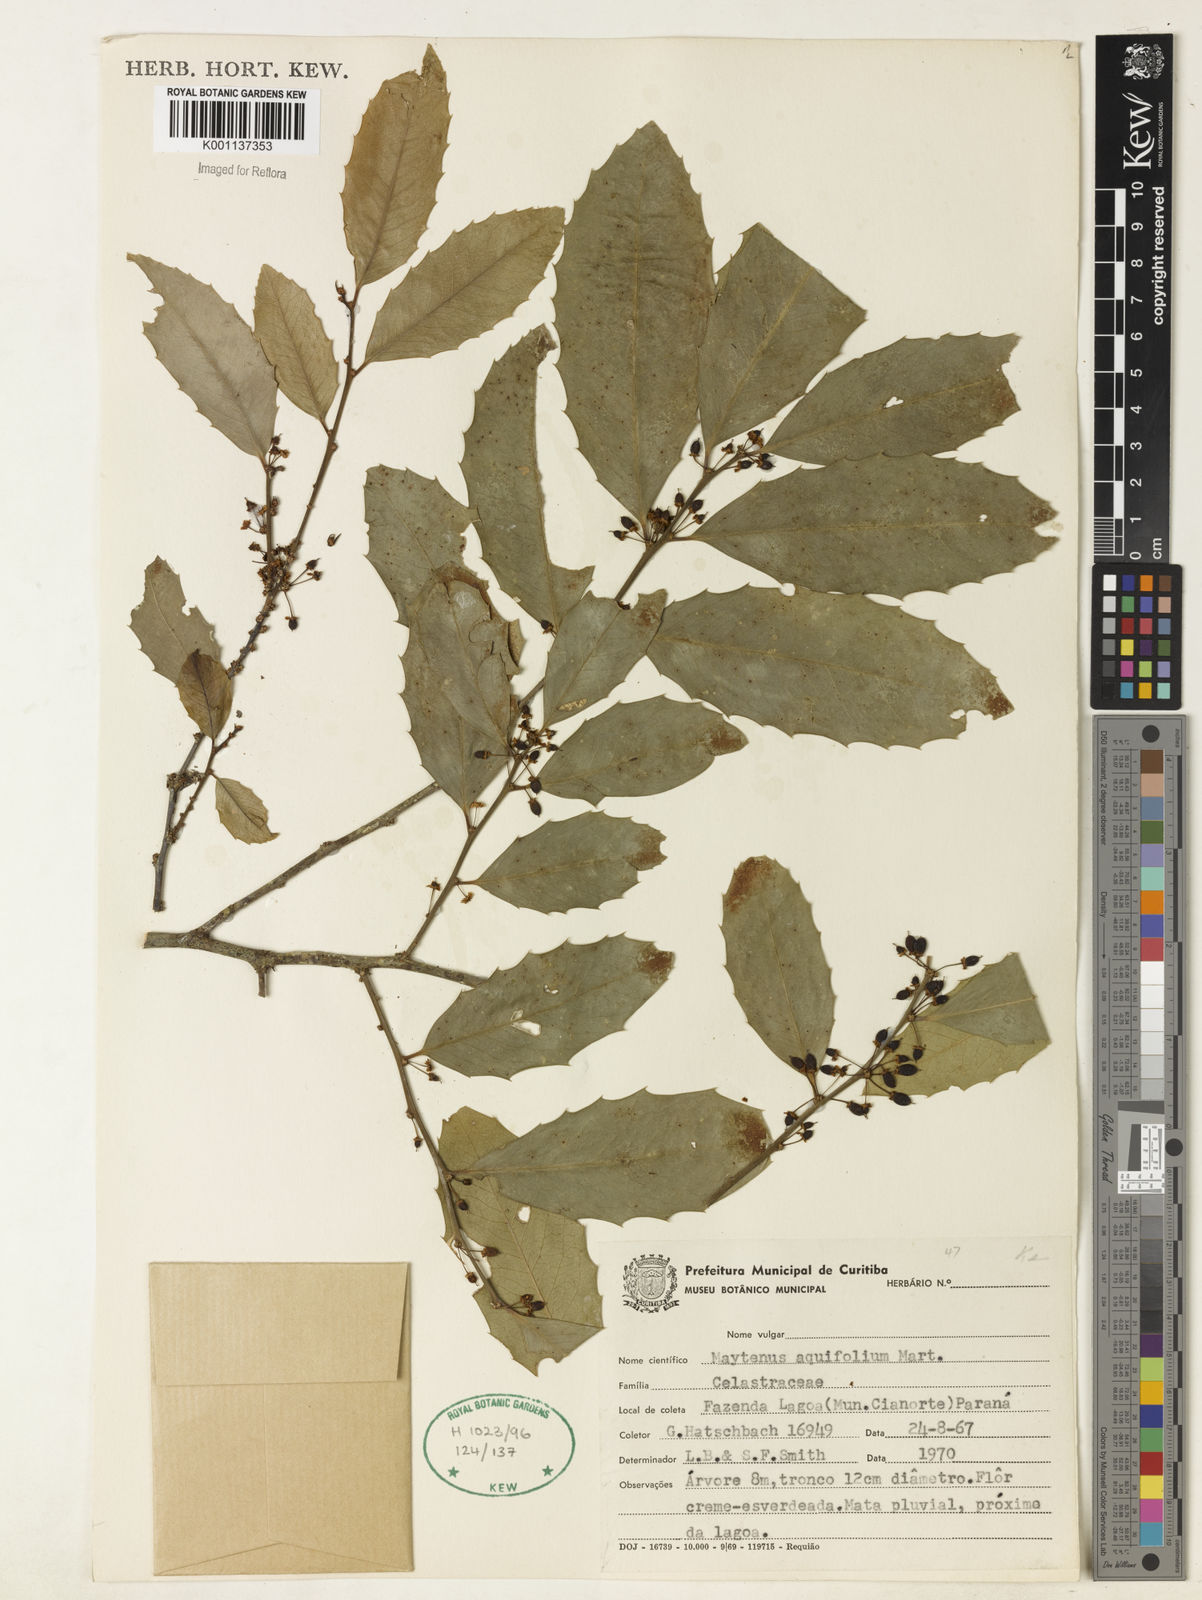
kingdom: Plantae
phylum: Tracheophyta
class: Magnoliopsida
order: Celastrales
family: Celastraceae
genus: Monteverdia
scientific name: Monteverdia aquifolium
